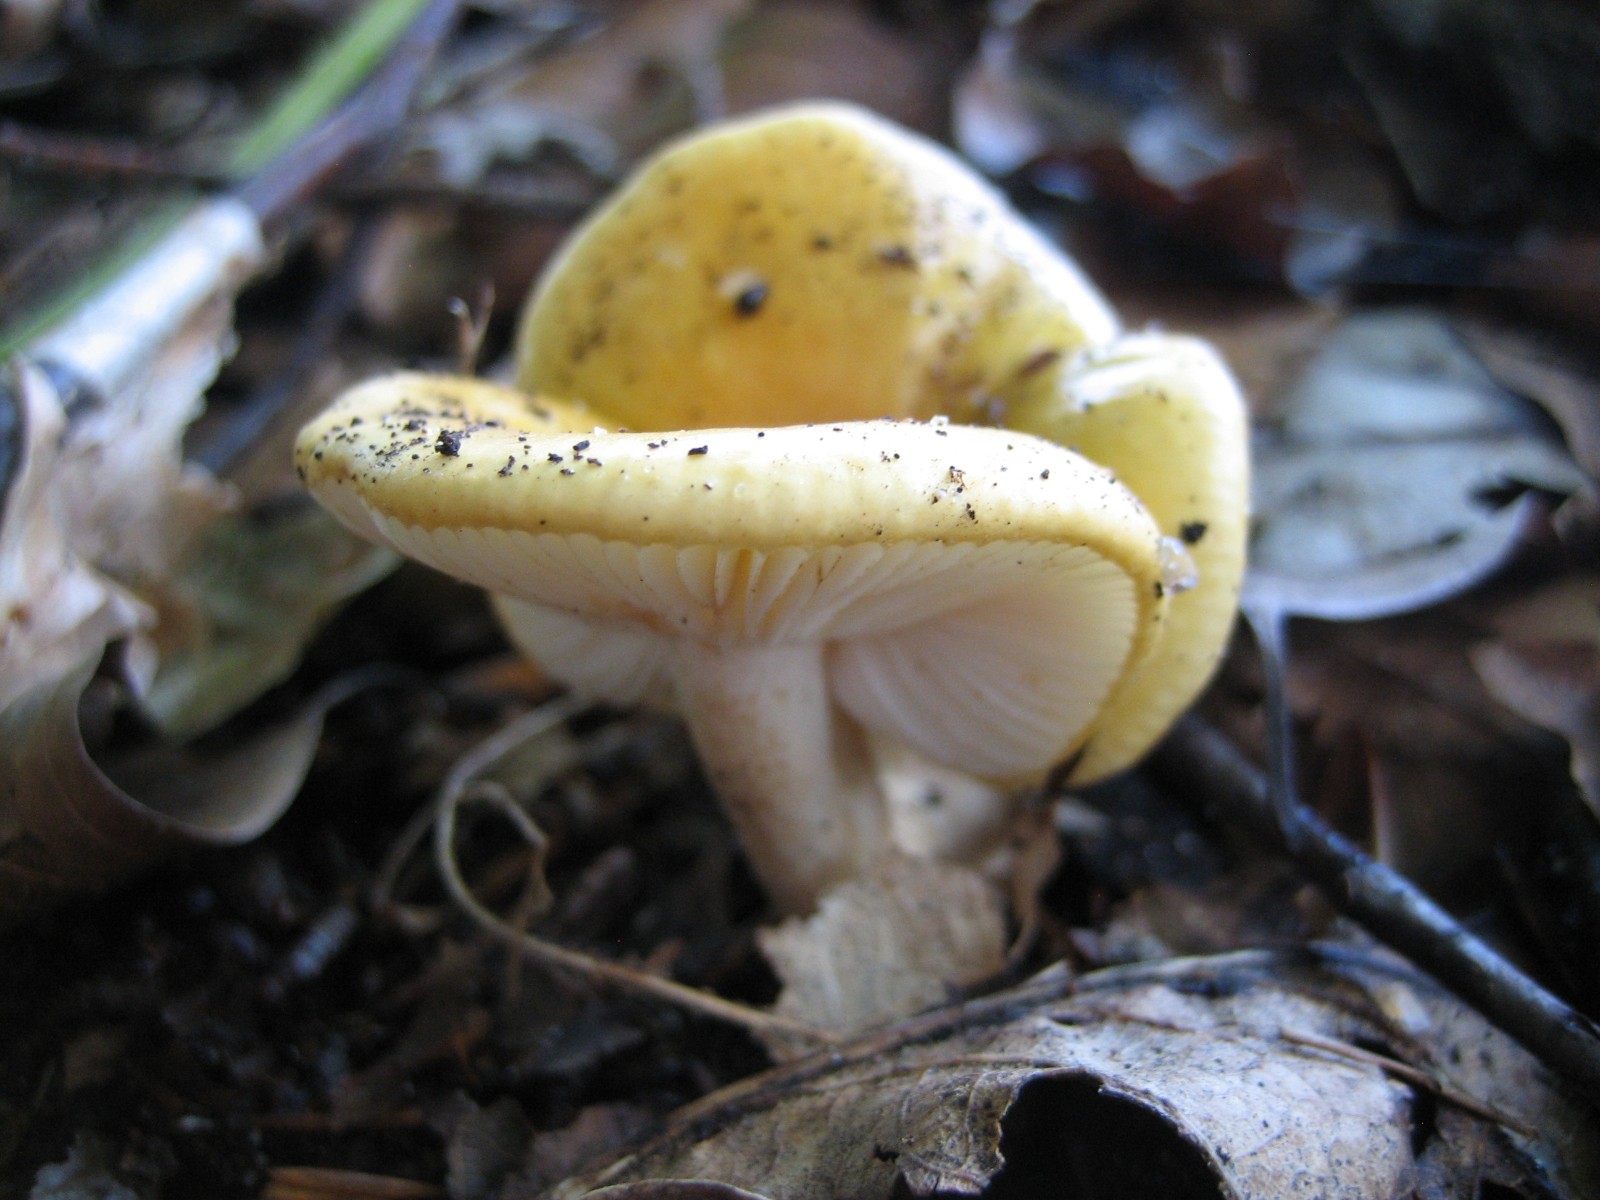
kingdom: Fungi
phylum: Basidiomycota
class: Agaricomycetes
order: Russulales
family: Russulaceae
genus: Russula
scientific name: Russula ochroleuca
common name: okkergul skørhat
